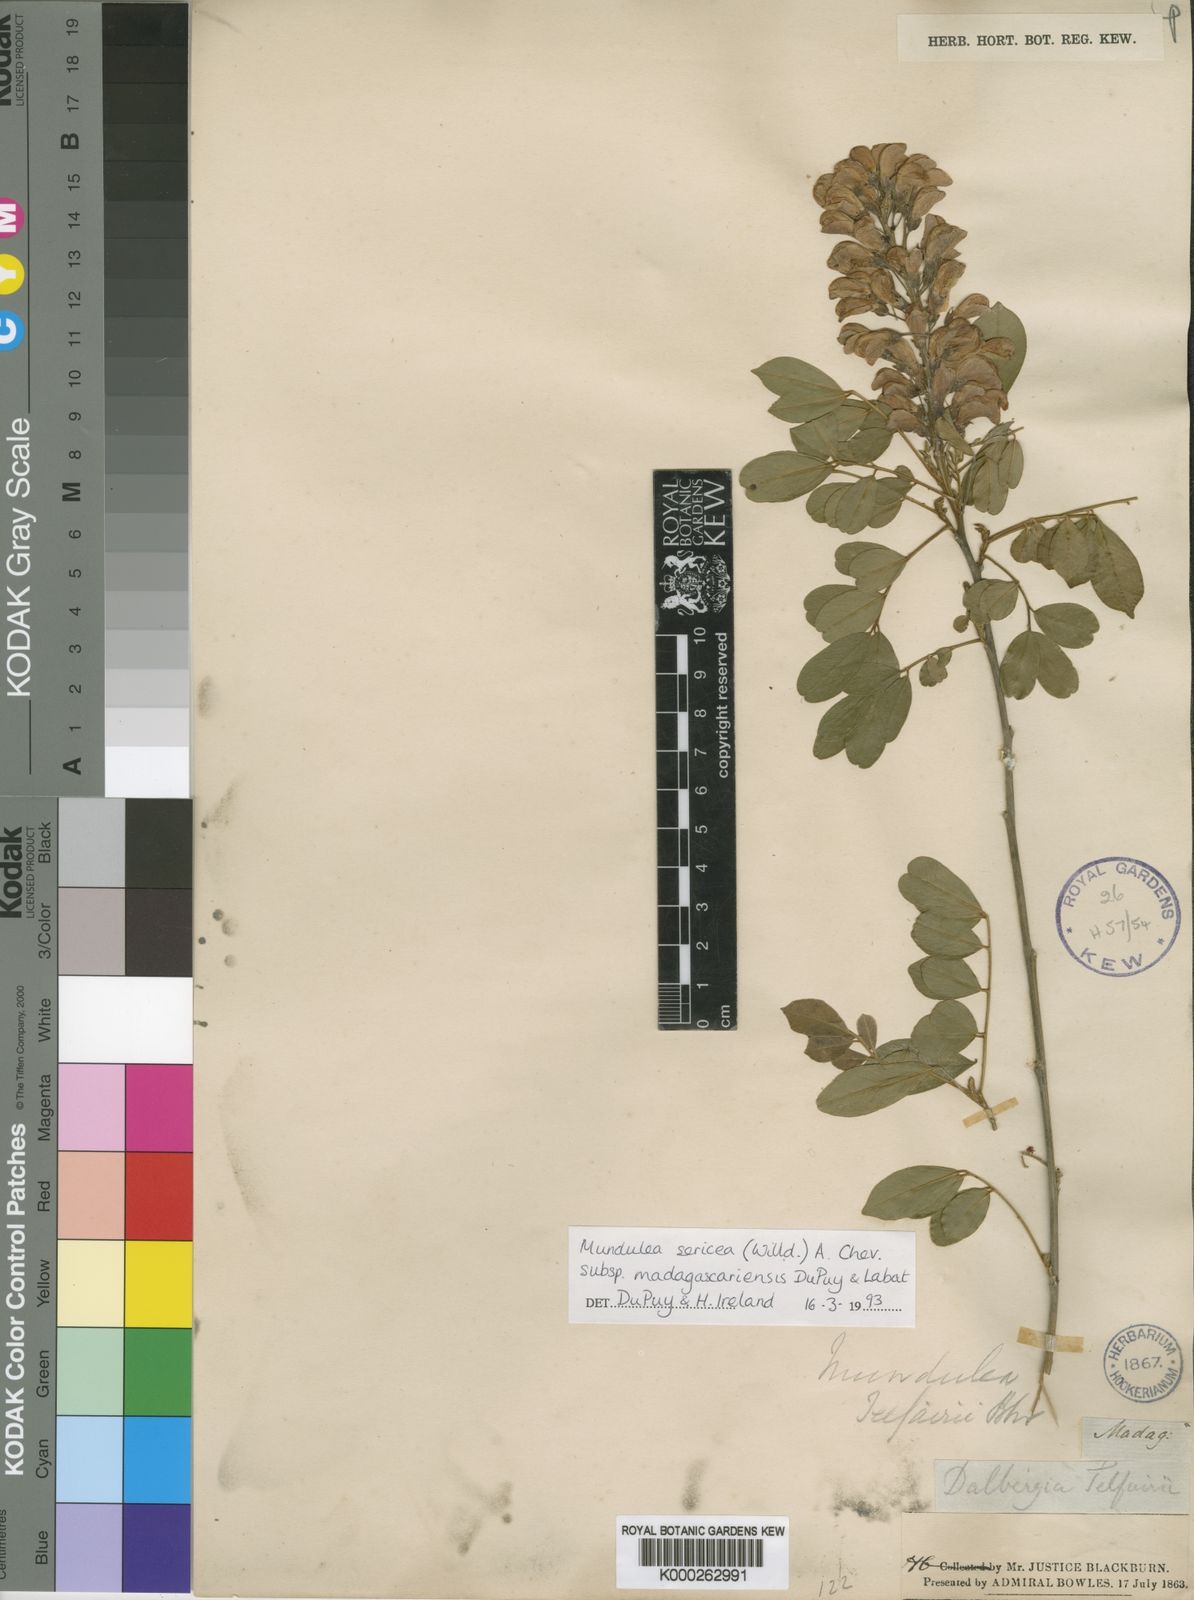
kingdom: Plantae
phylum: Tracheophyta
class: Magnoliopsida
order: Fabales
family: Fabaceae
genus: Mundulea
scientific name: Mundulea sericea
